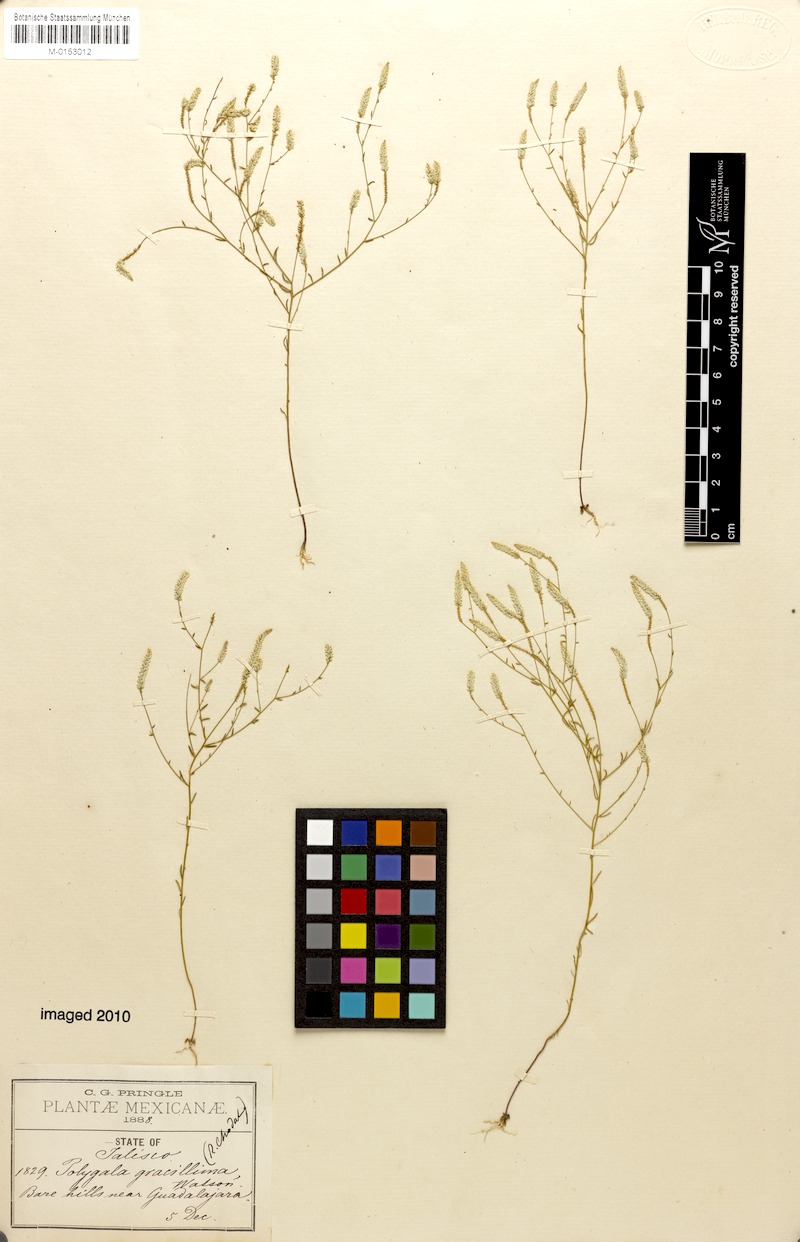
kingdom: Plantae
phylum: Tracheophyta
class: Magnoliopsida
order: Fabales
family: Polygalaceae
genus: Polygala
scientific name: Polygala gracillima
